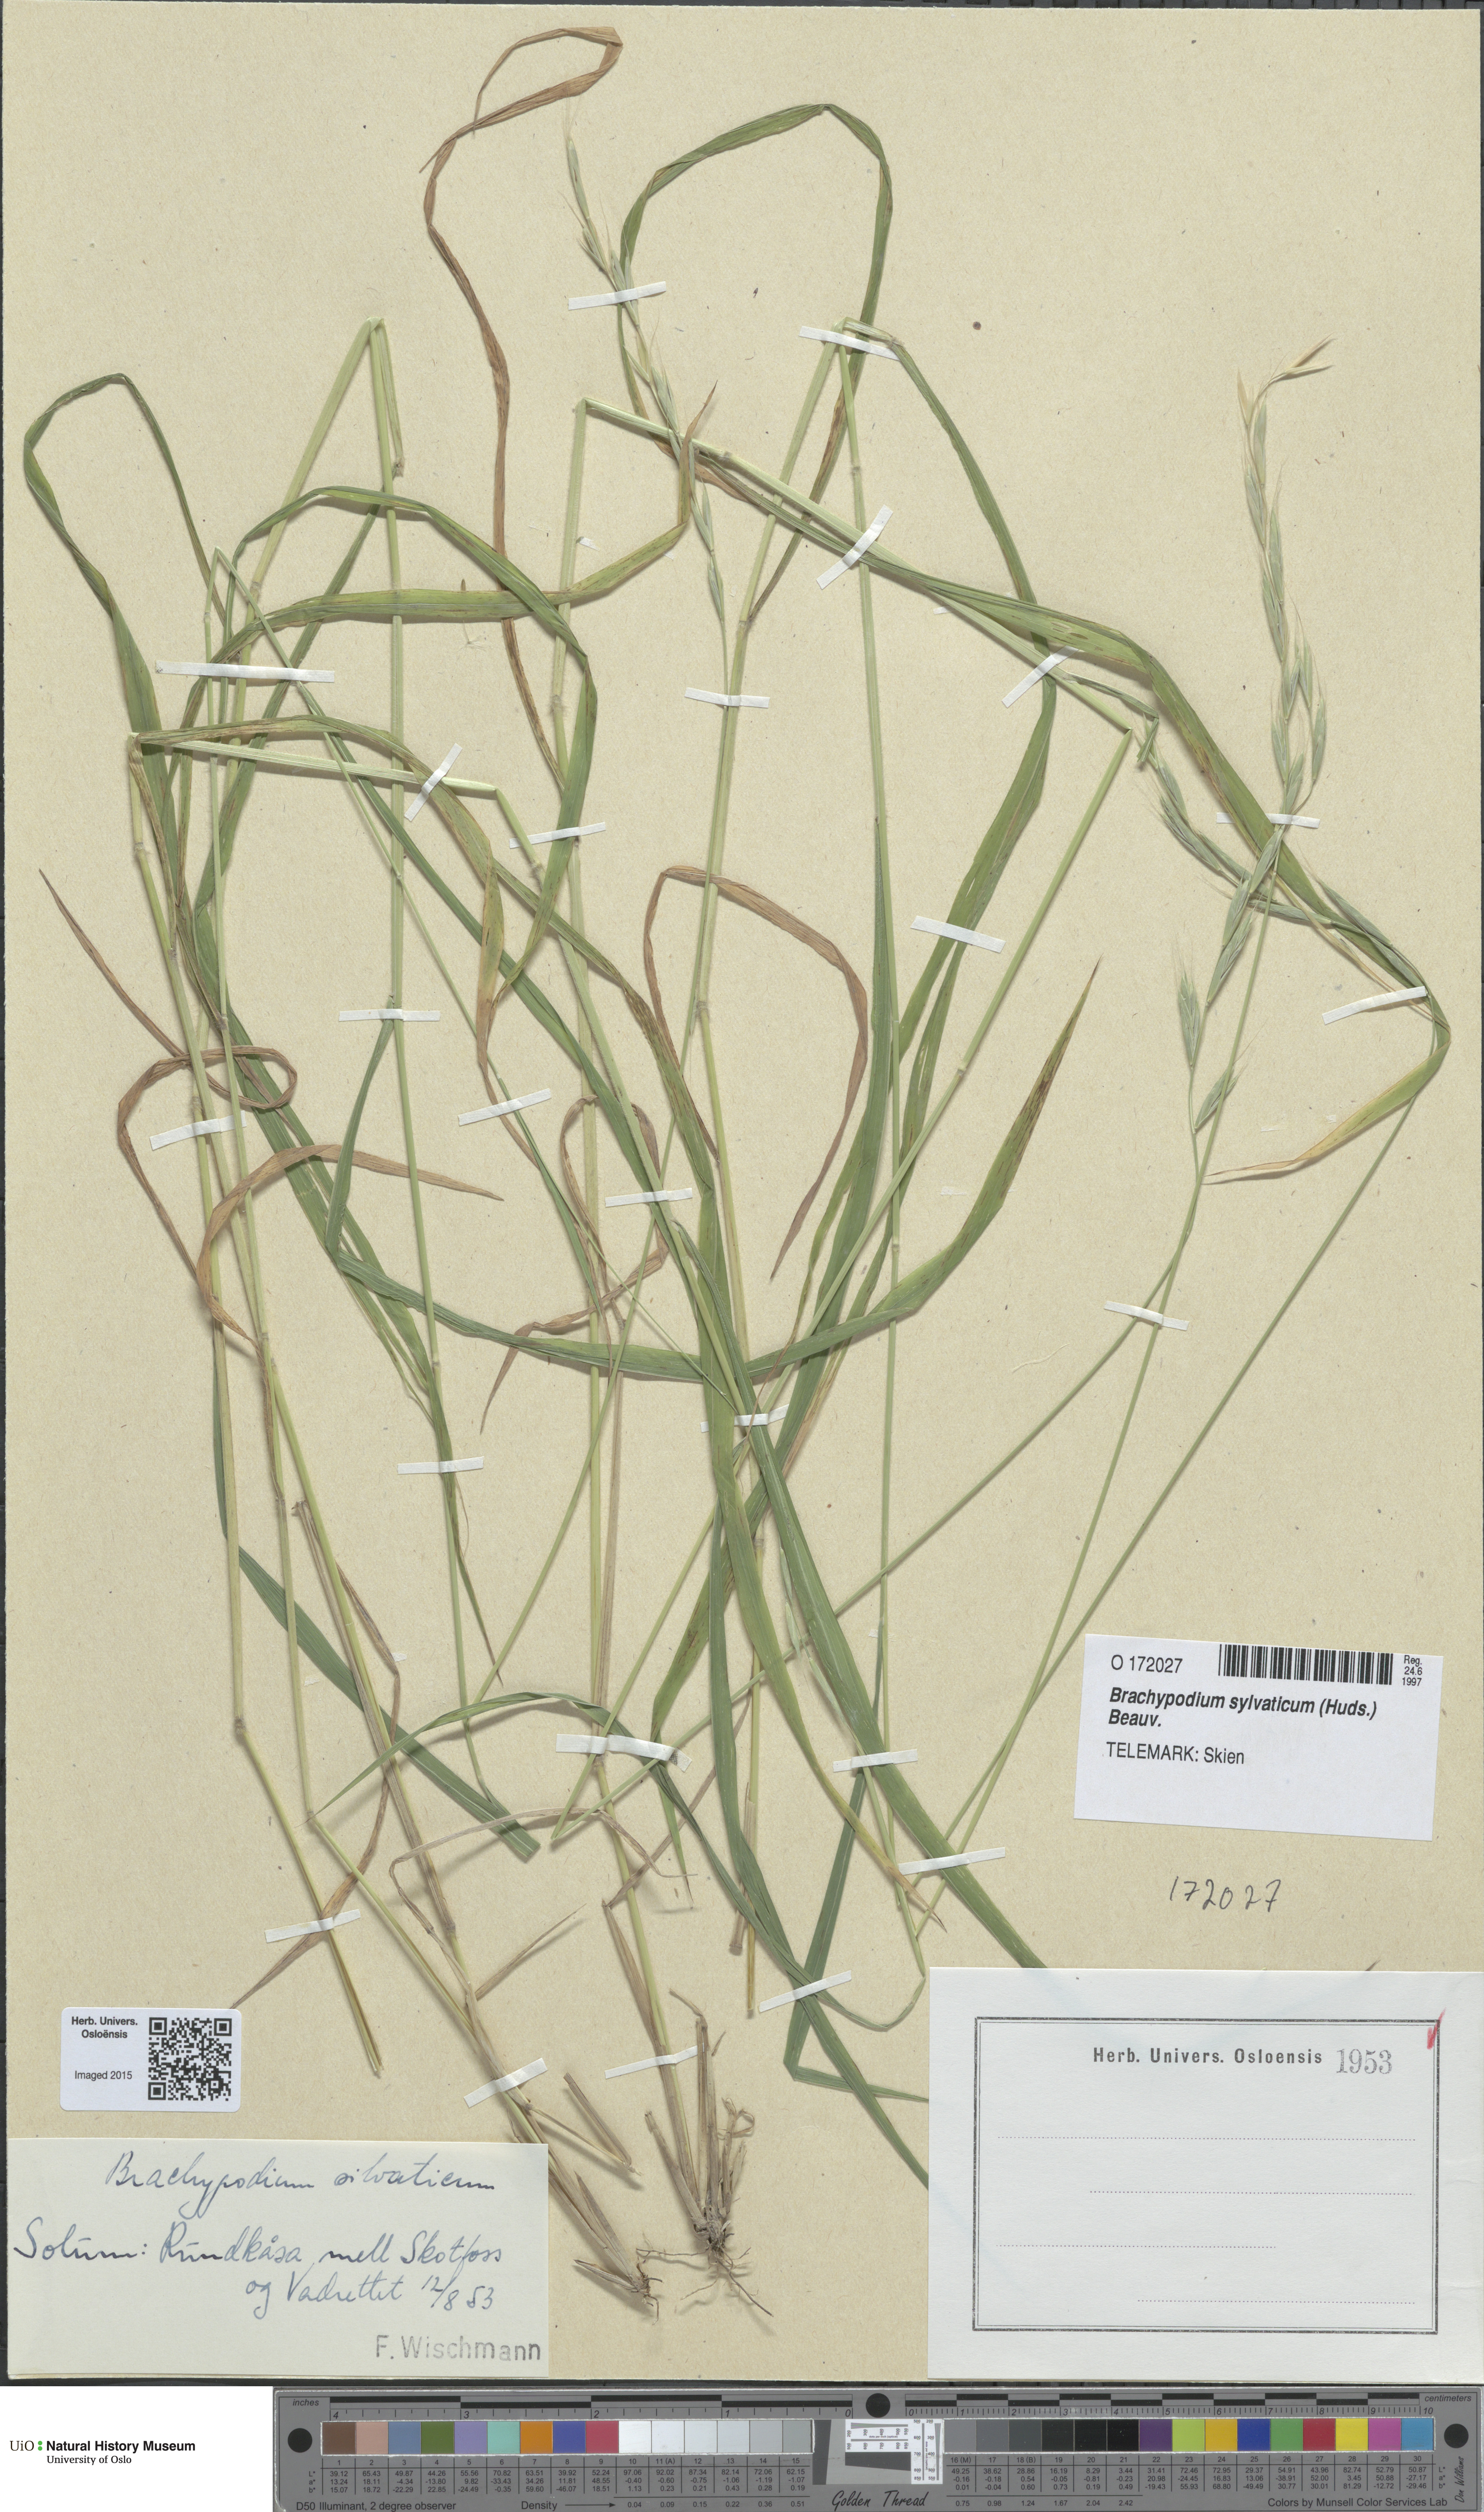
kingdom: Plantae
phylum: Tracheophyta
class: Liliopsida
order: Poales
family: Poaceae
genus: Brachypodium
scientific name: Brachypodium sylvaticum
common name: False-brome
